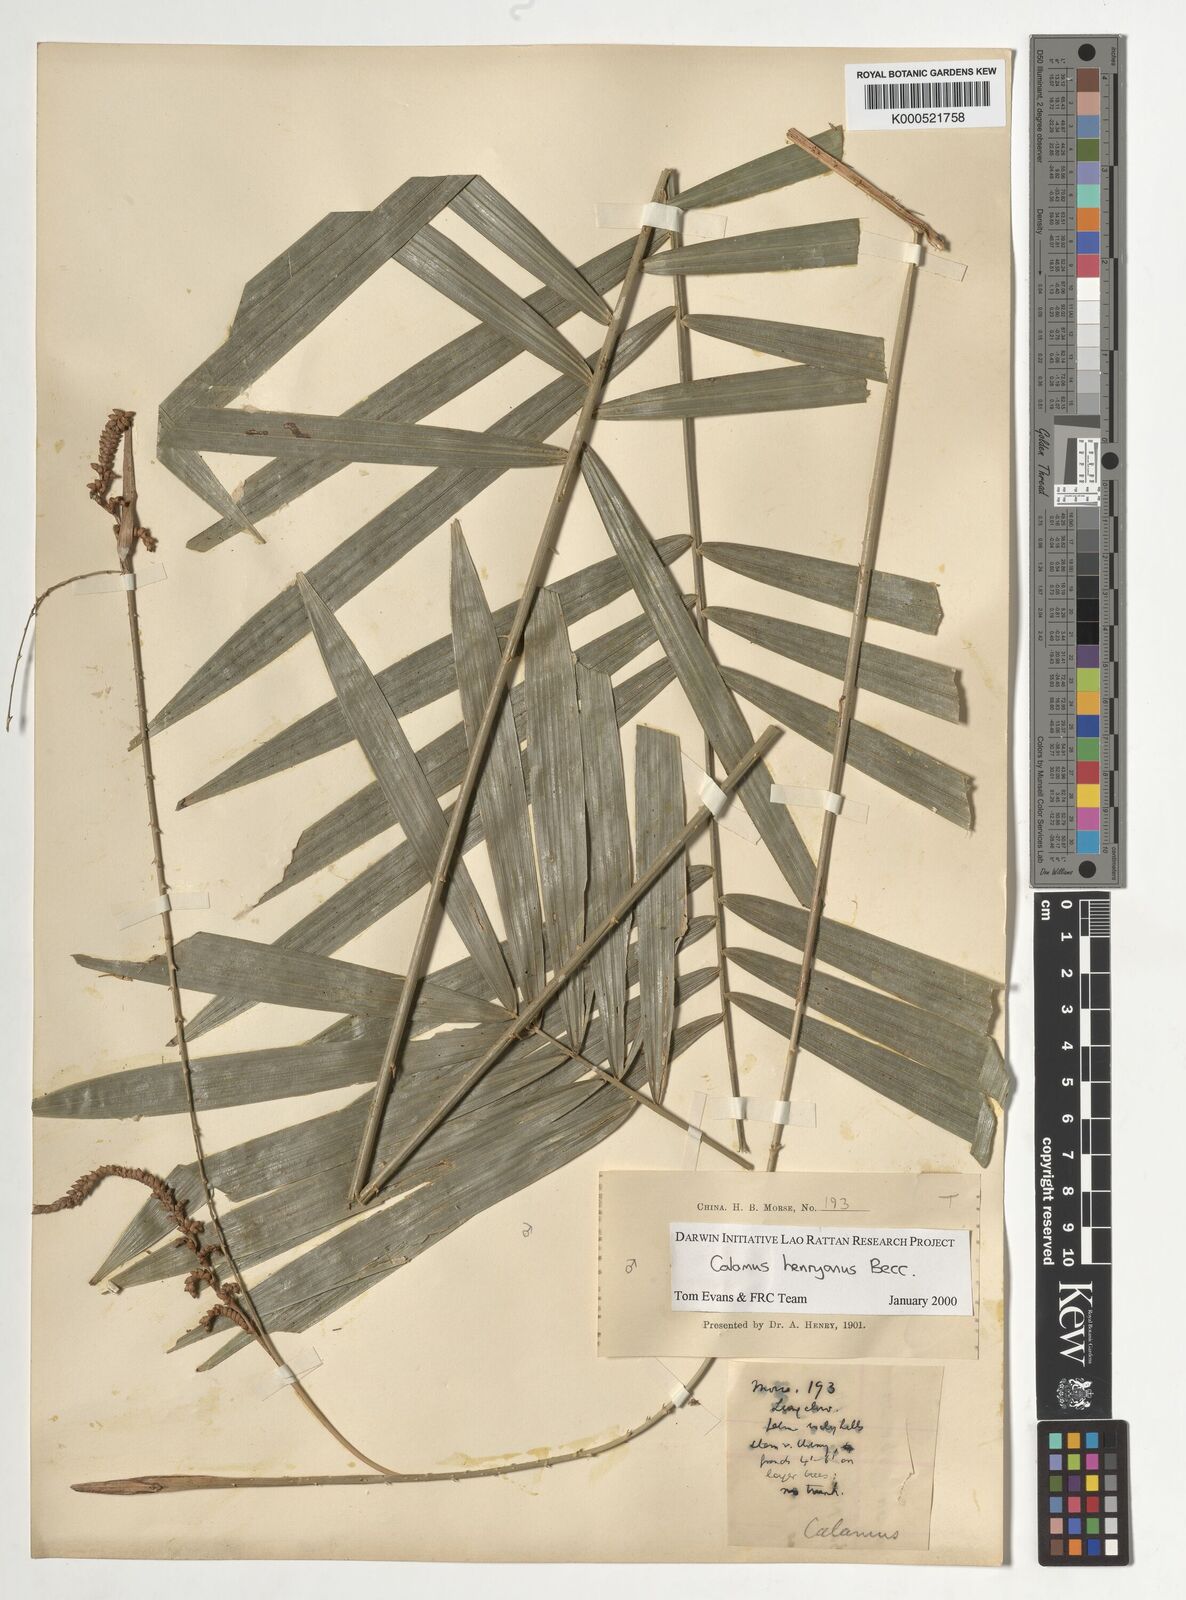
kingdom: Plantae
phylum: Tracheophyta
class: Liliopsida
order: Arecales
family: Arecaceae
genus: Calamus
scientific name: Calamus henryanus
